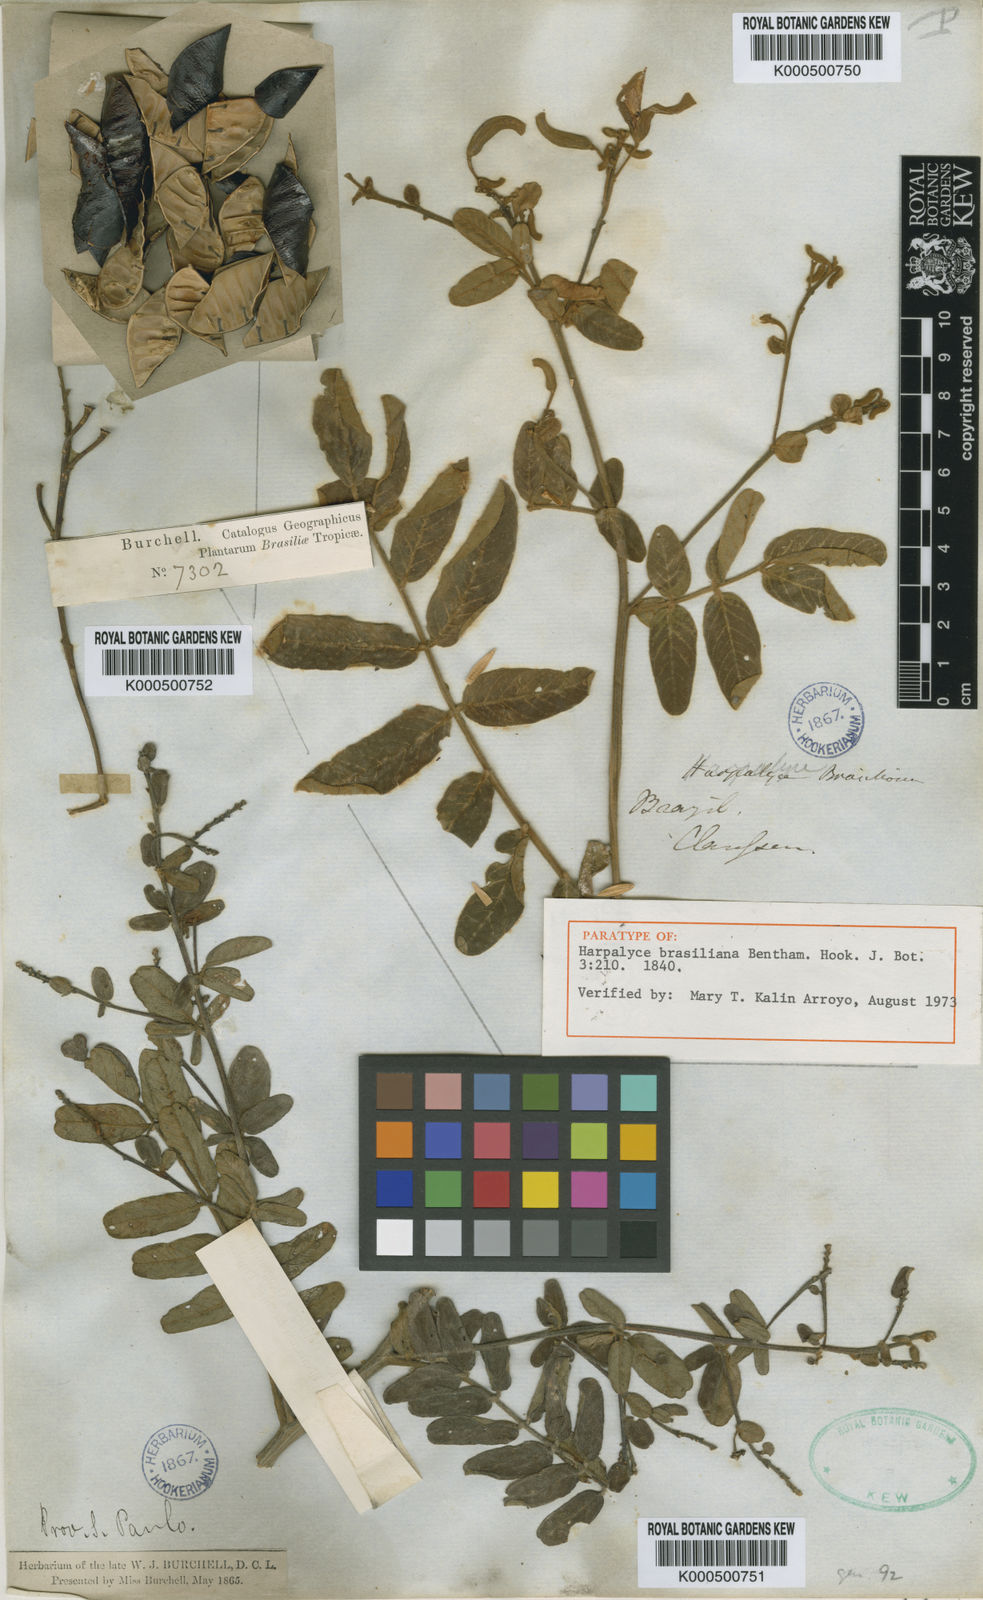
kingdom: Plantae
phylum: Tracheophyta
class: Magnoliopsida
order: Fabales
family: Fabaceae
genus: Harpalyce
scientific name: Harpalyce brasiliana
